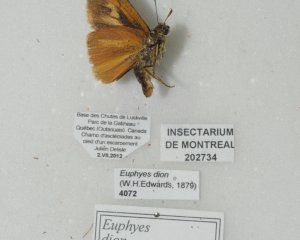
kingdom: Animalia
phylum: Arthropoda
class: Insecta
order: Lepidoptera
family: Hesperiidae
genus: Euphyes
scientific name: Euphyes dion
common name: Dion Skipper
